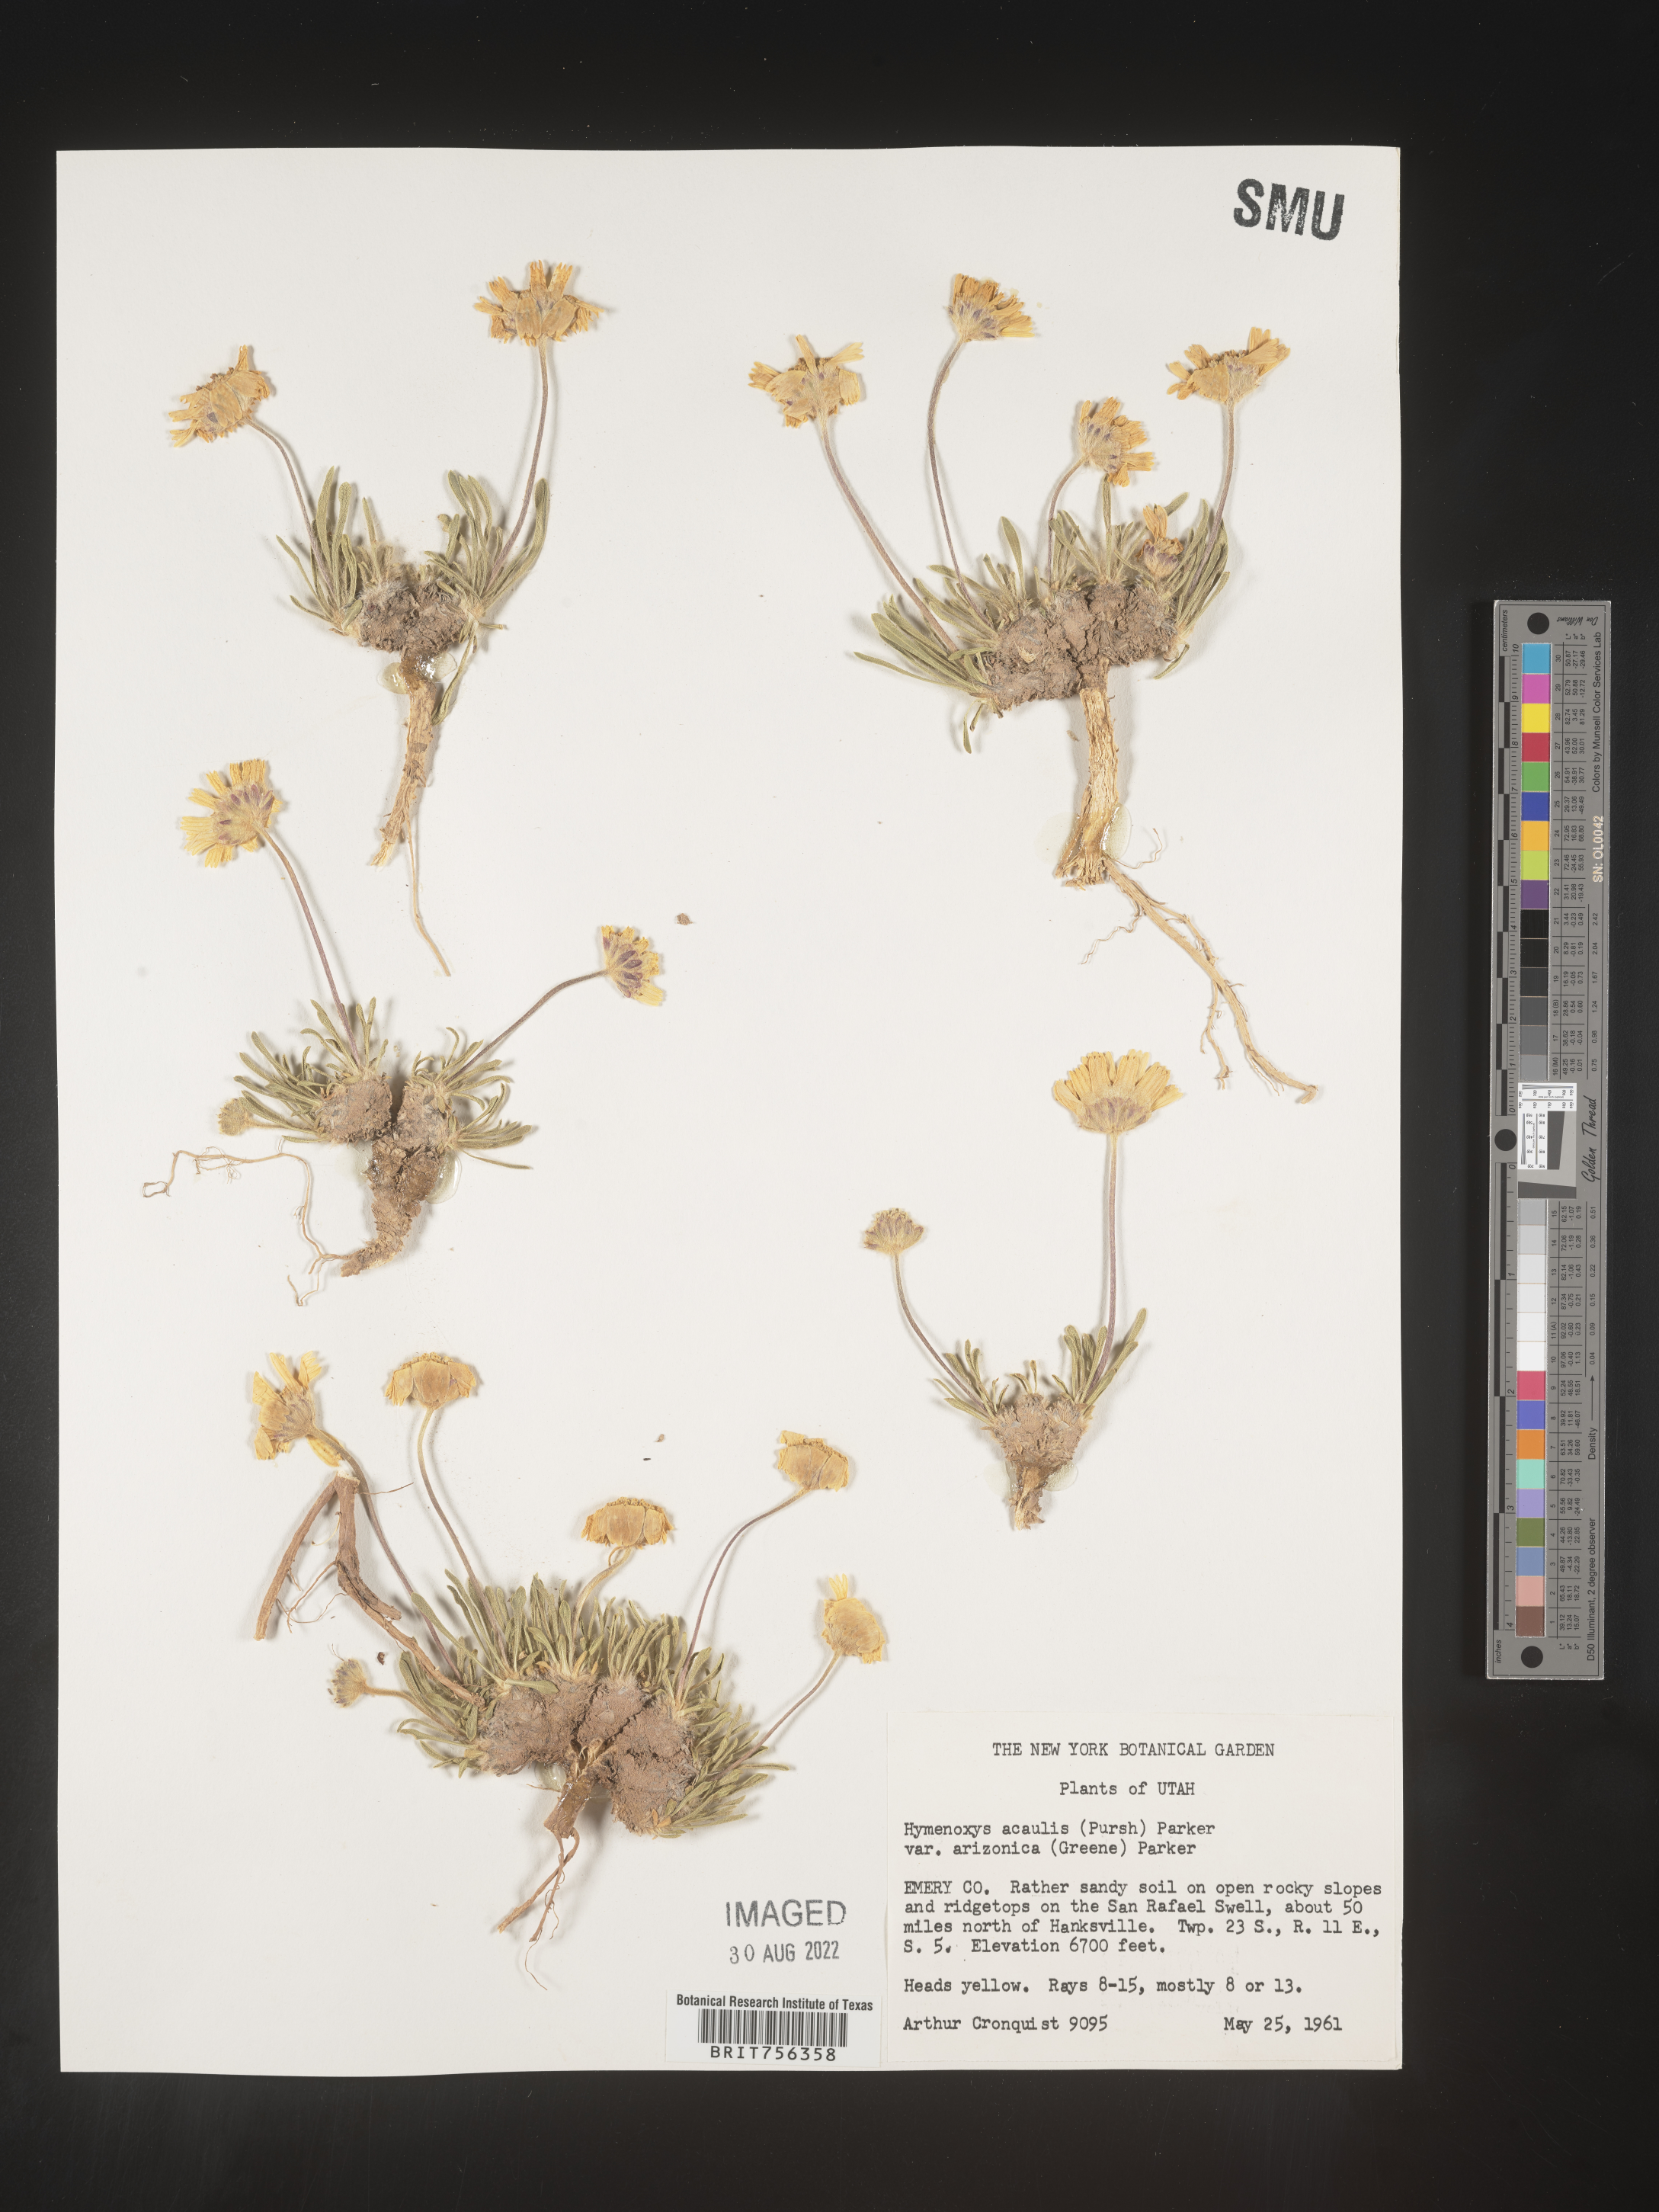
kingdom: Plantae
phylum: Tracheophyta
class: Magnoliopsida
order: Asterales
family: Asteraceae
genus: Tetraneuris
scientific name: Tetraneuris acaulis
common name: Butte marigold
